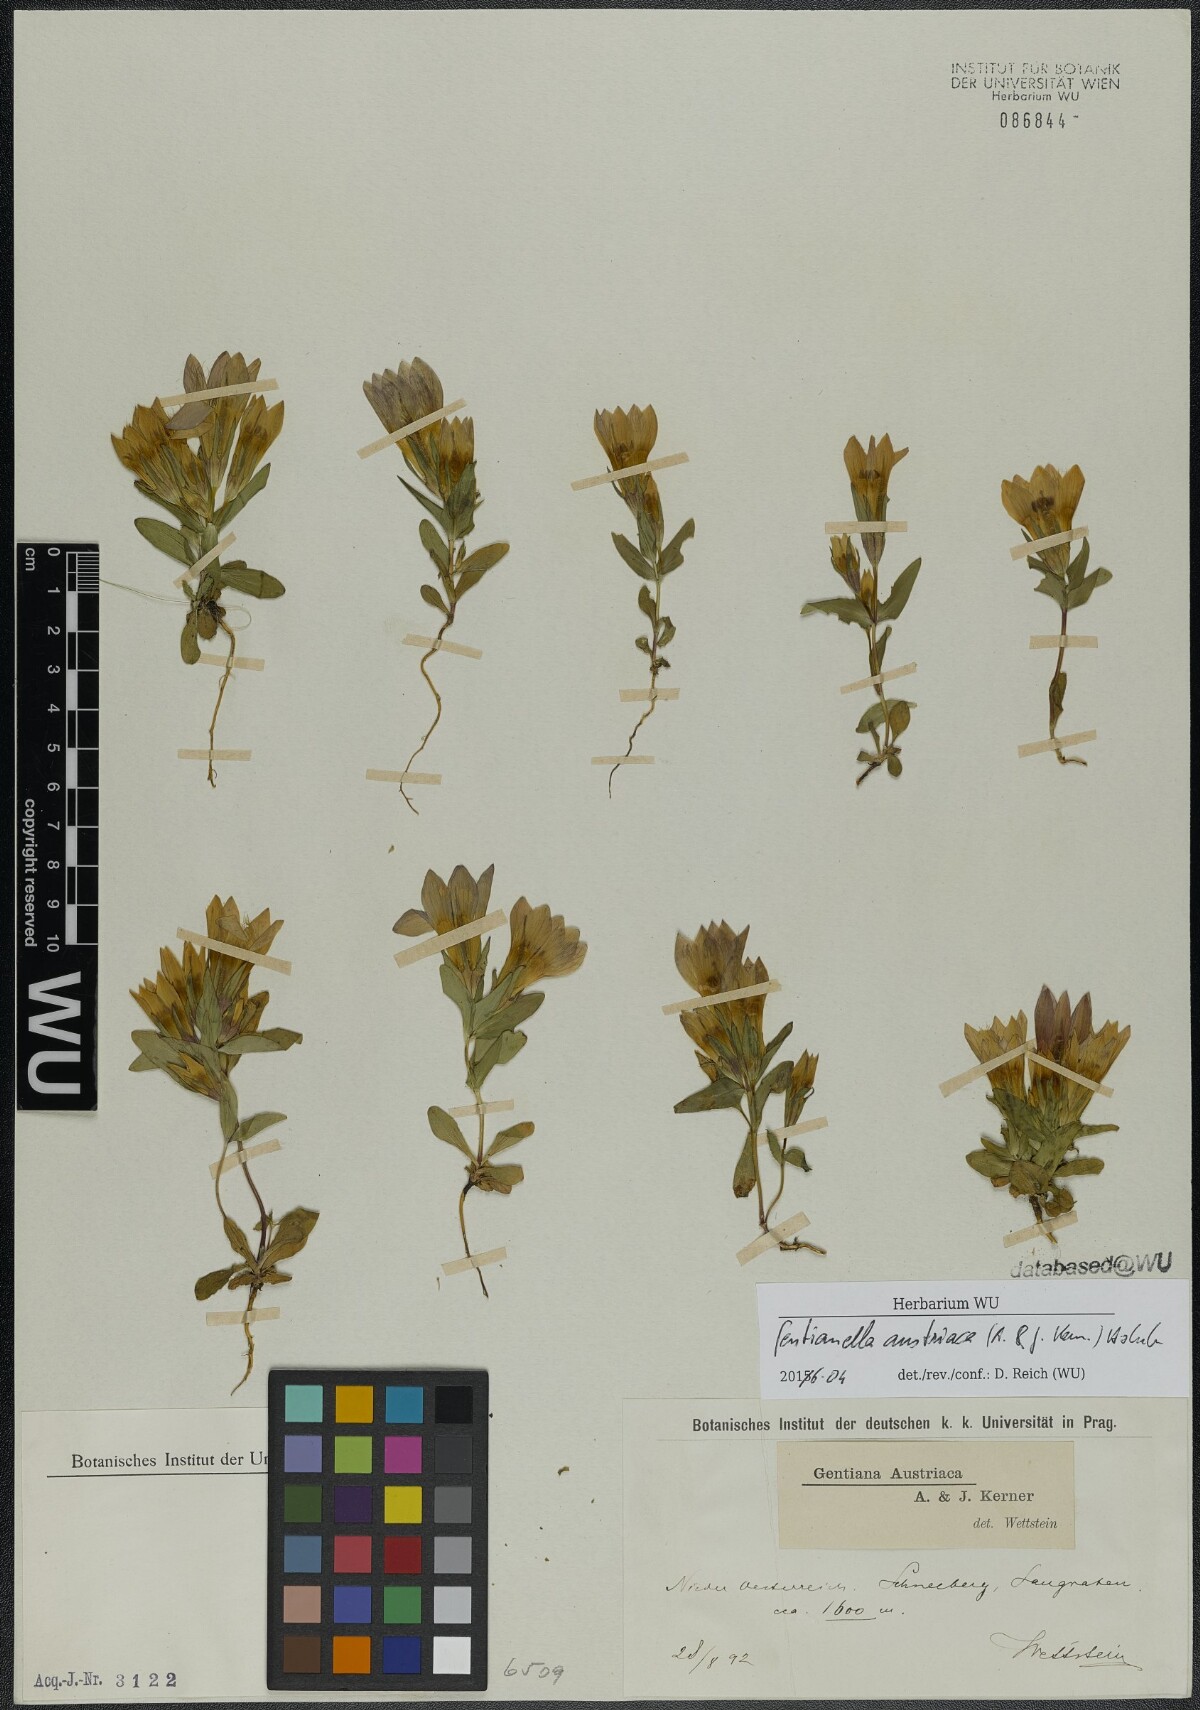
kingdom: Plantae
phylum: Tracheophyta
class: Magnoliopsida
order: Gentianales
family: Gentianaceae
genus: Gentianella
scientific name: Gentianella austriaca
